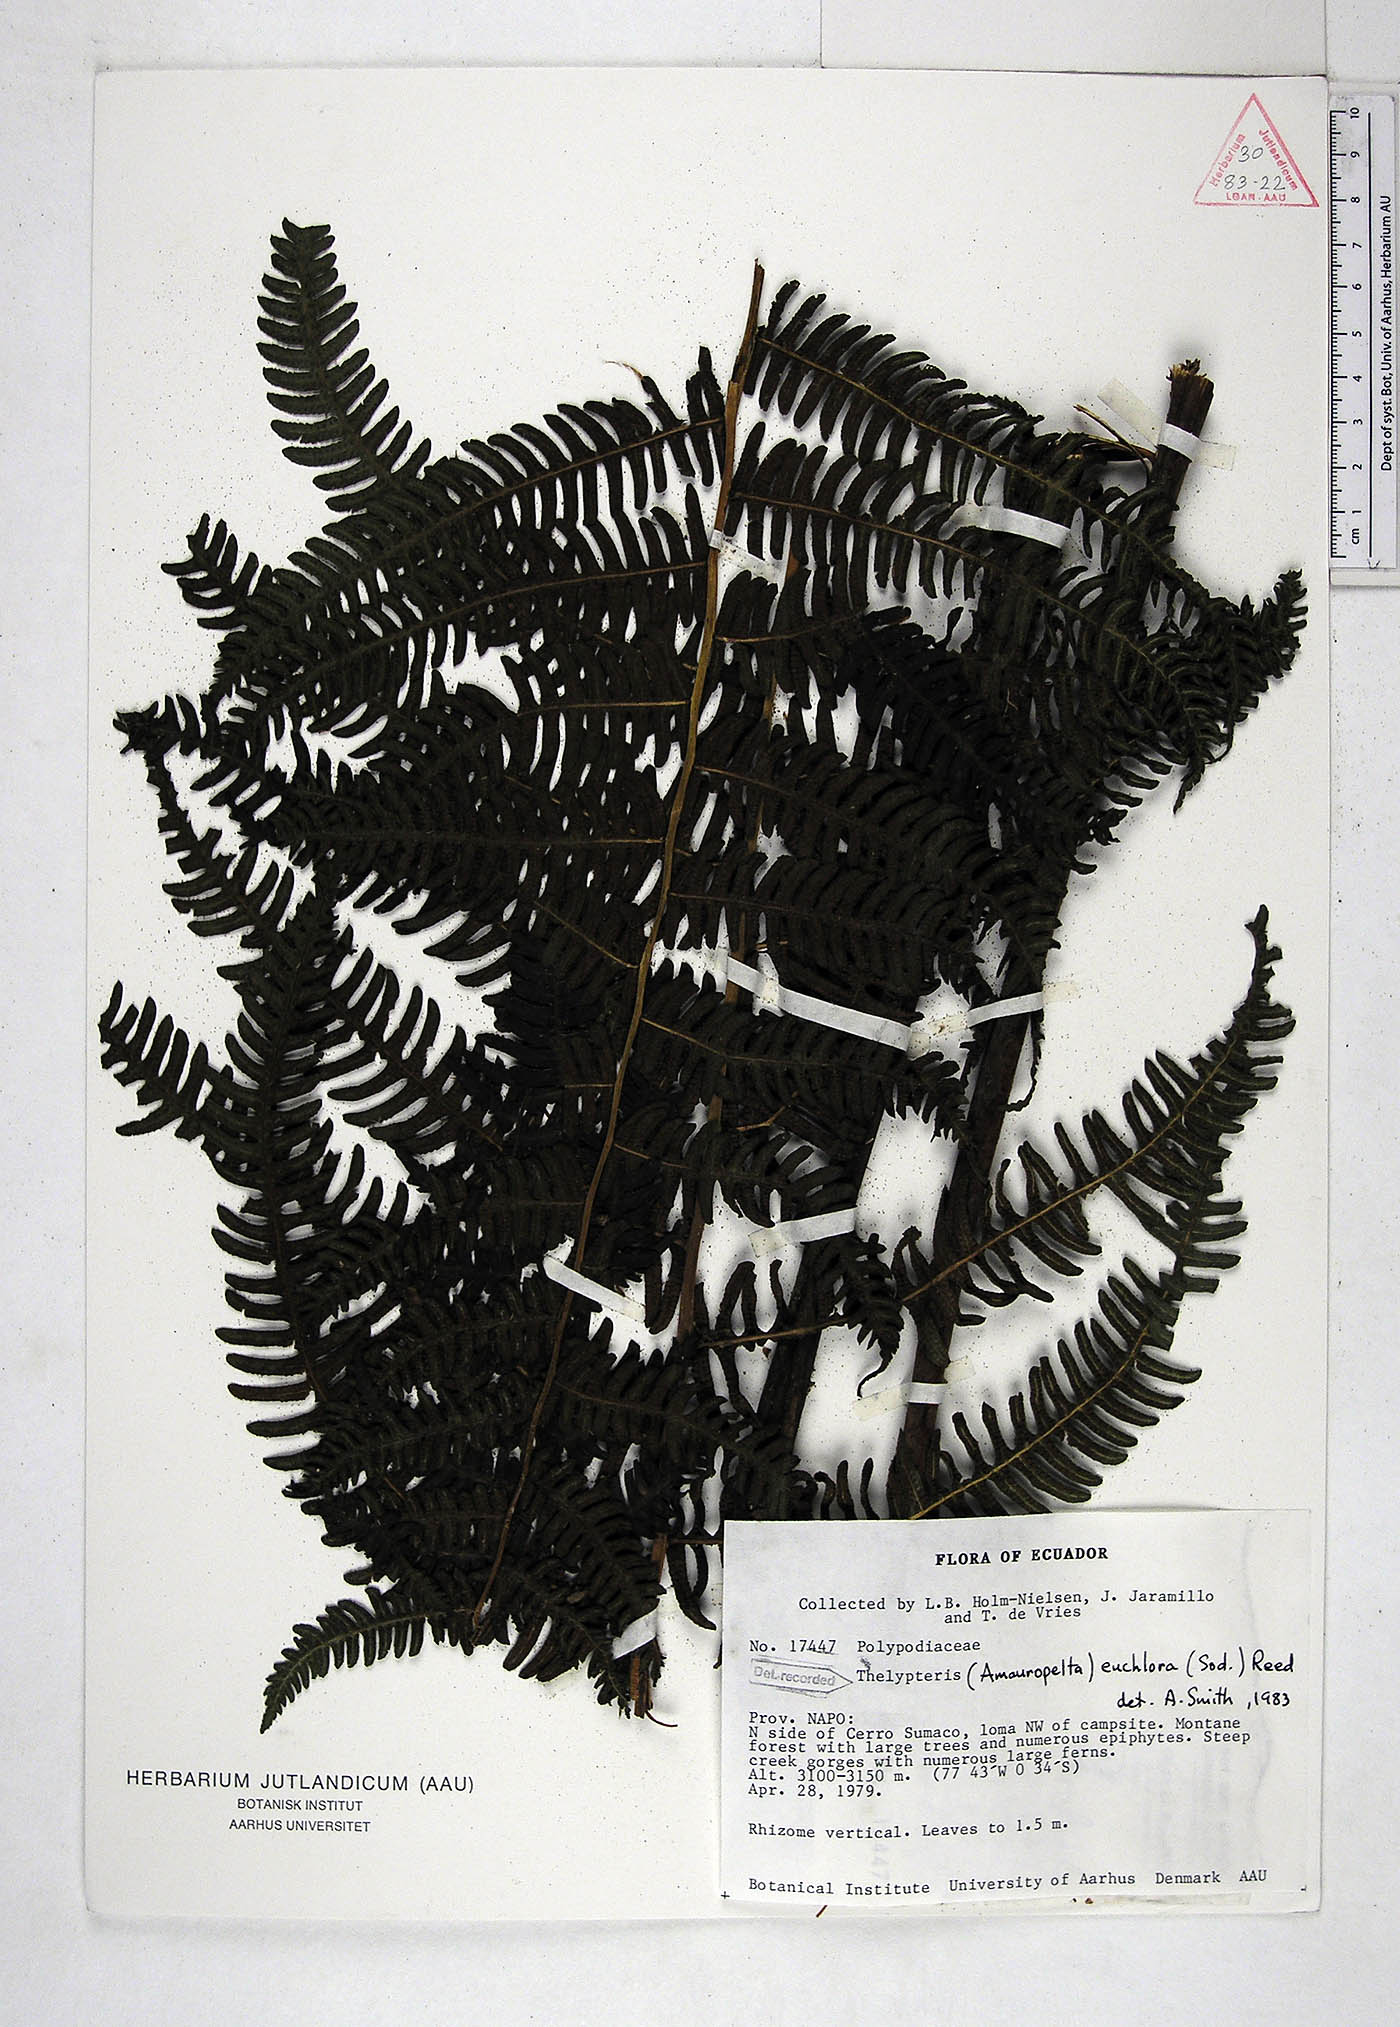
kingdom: Plantae
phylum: Tracheophyta
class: Polypodiopsida
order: Polypodiales
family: Thelypteridaceae
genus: Amauropelta
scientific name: Amauropelta euchlora
